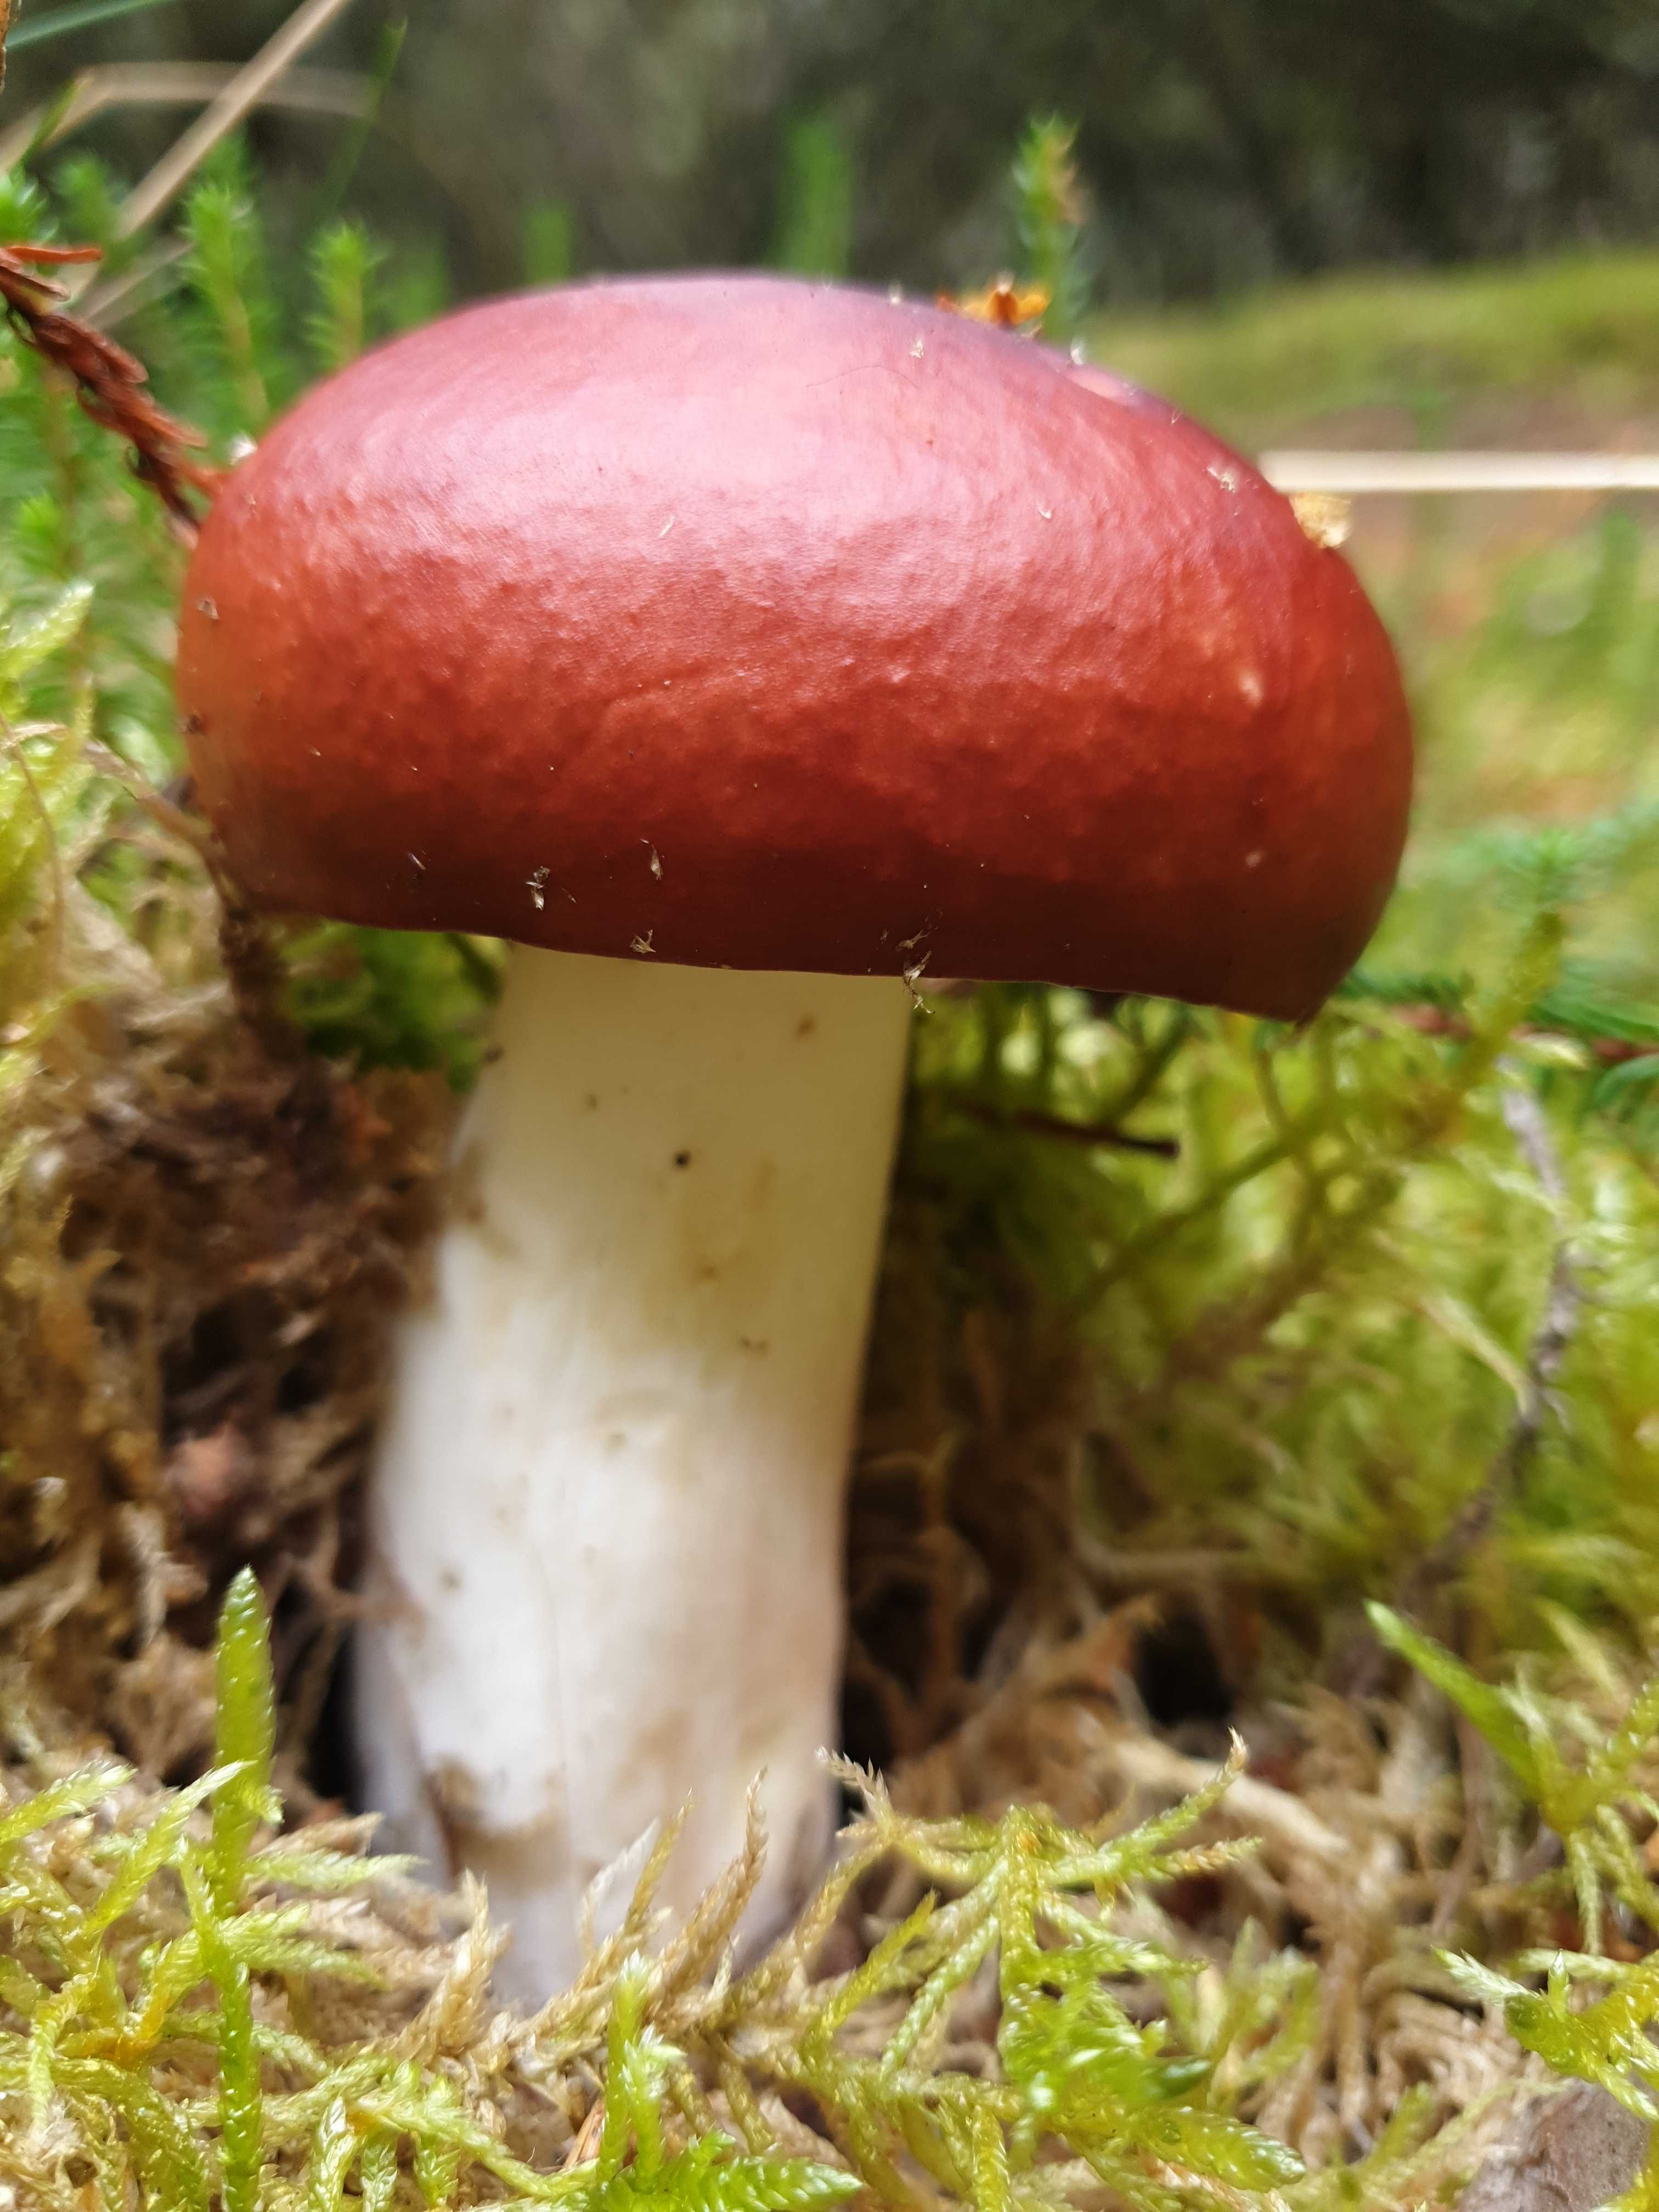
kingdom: Fungi
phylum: Basidiomycota
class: Agaricomycetes
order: Russulales
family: Russulaceae
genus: Russula
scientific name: Russula paludosa
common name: prægtig skørhat
